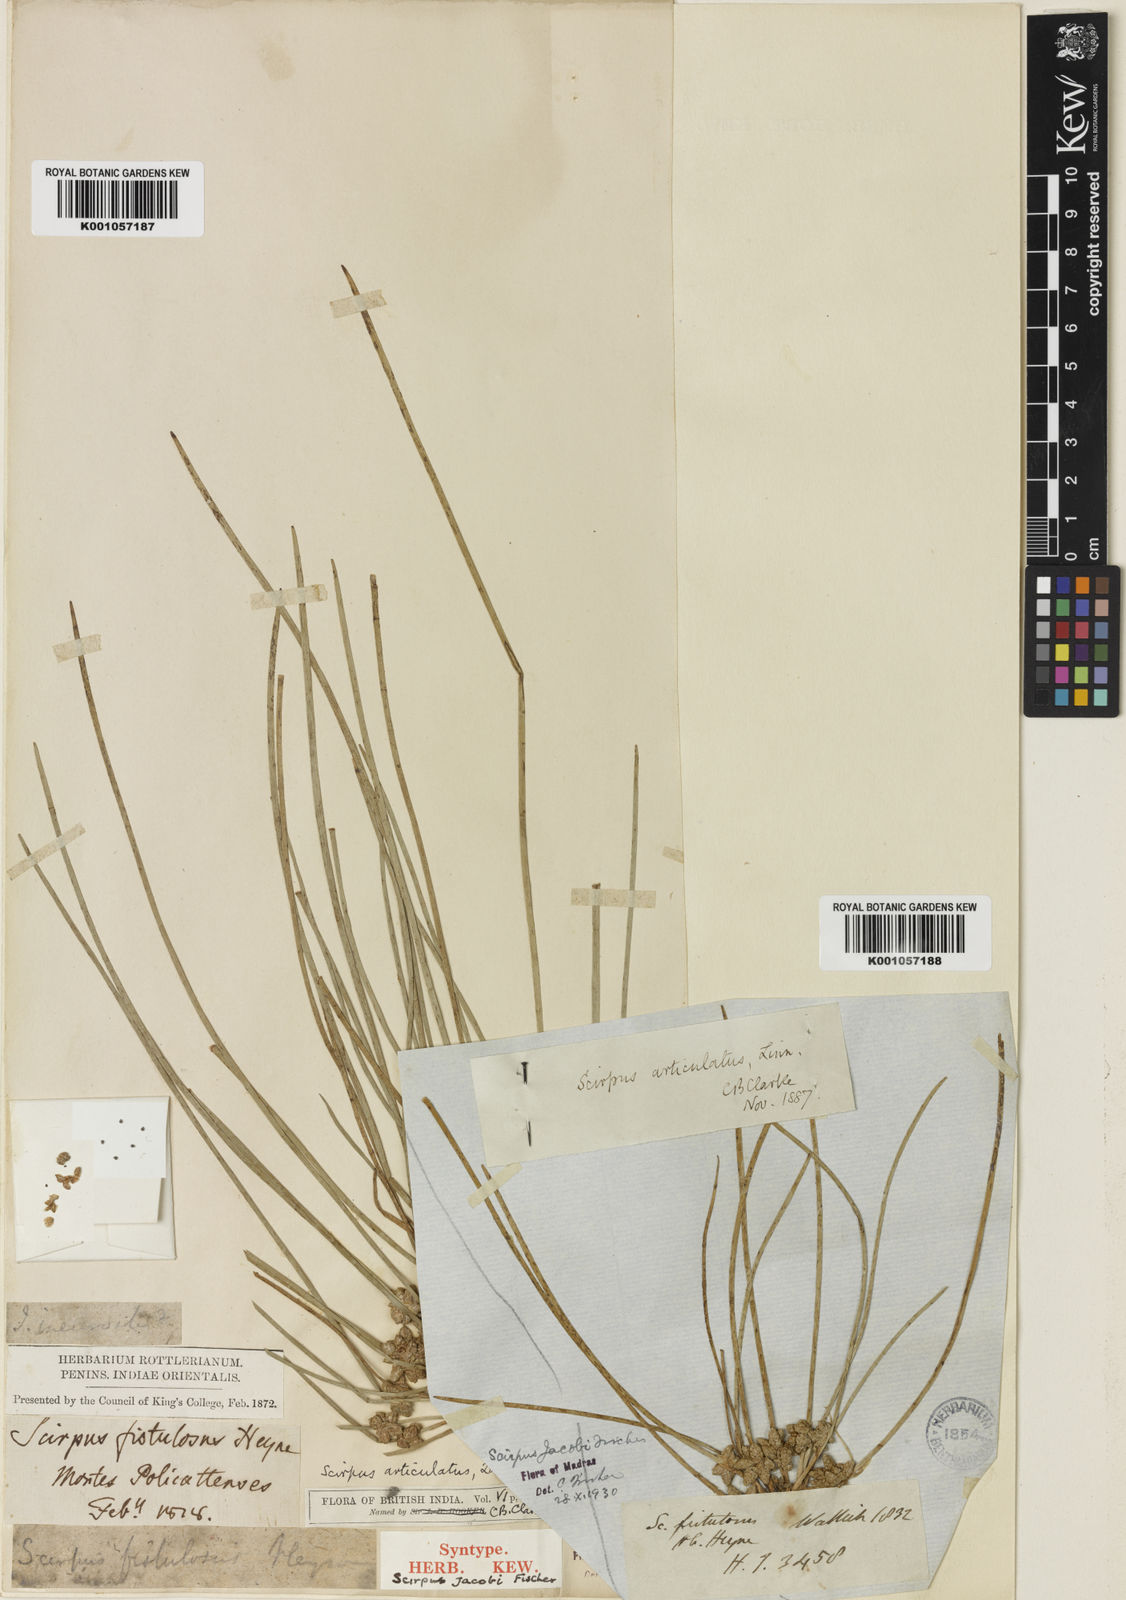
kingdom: Plantae
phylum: Tracheophyta
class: Liliopsida
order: Poales
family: Cyperaceae
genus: Schoenoplectiella
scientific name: Schoenoplectiella senegalensis
